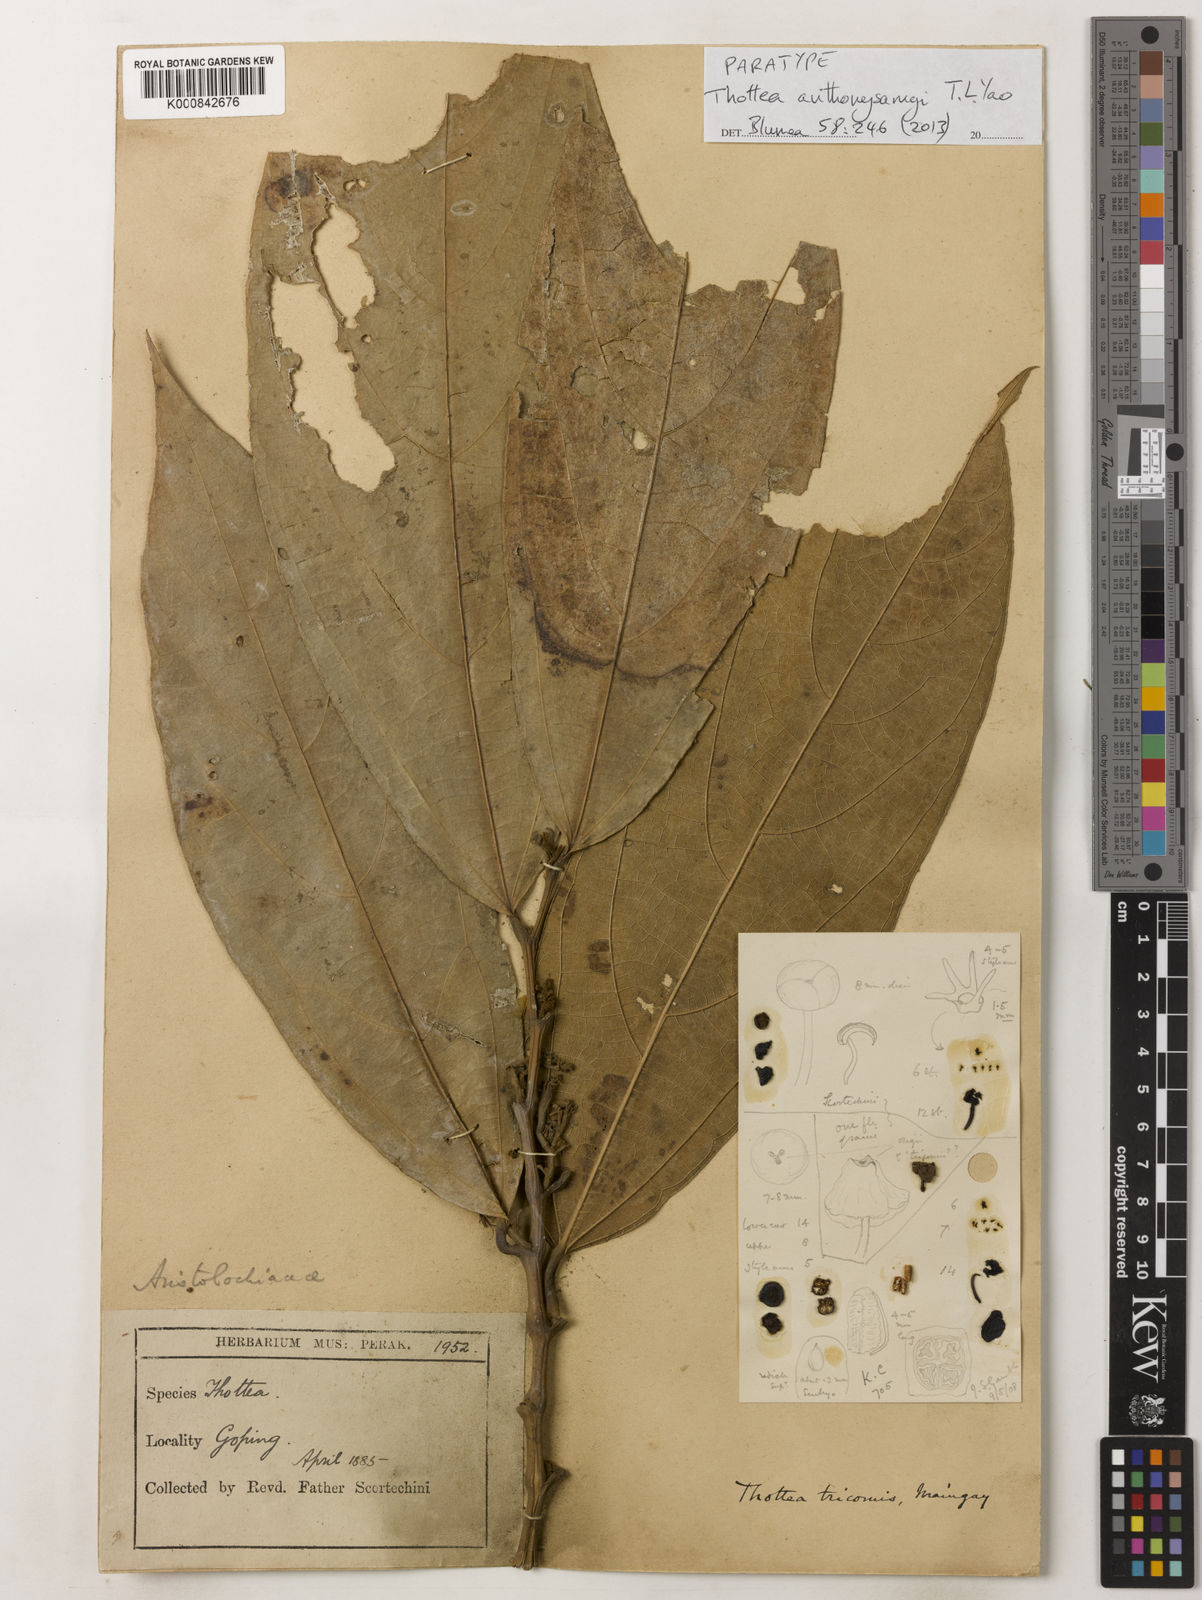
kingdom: Plantae
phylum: Tracheophyta
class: Magnoliopsida
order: Piperales
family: Aristolochiaceae
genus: Thottea
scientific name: Thottea anthonysamyi
